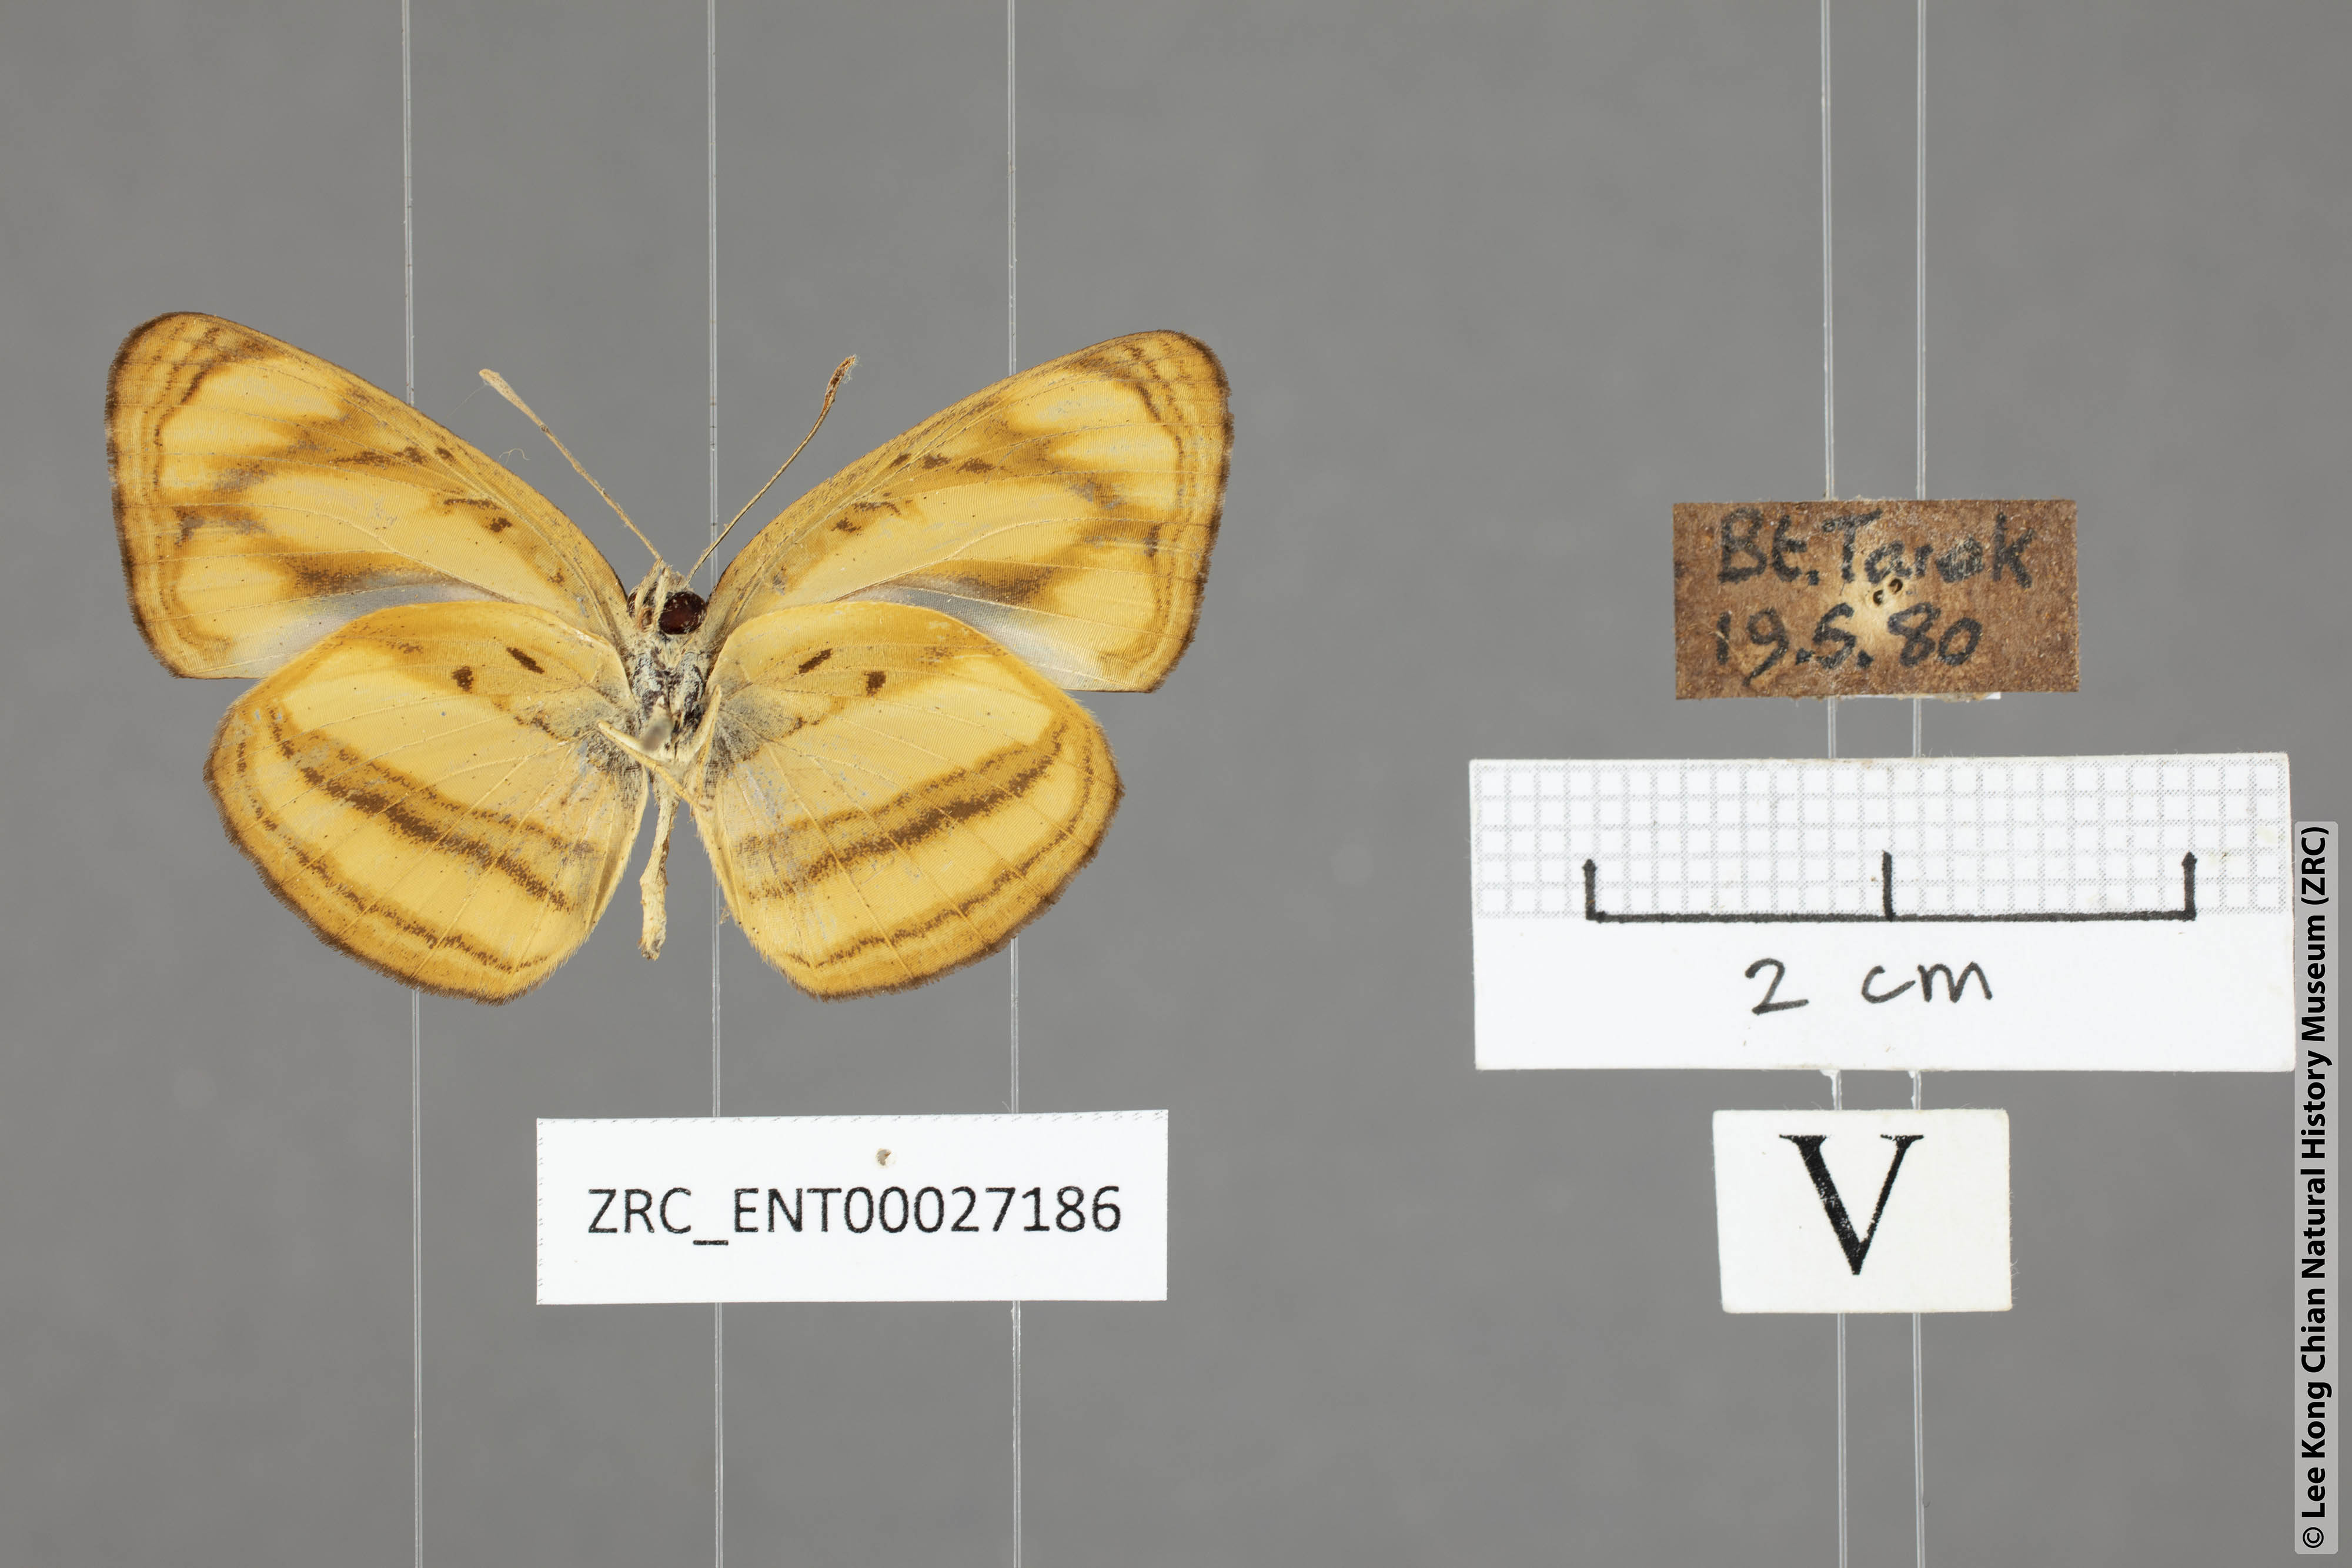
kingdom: Animalia
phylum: Arthropoda
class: Insecta
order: Lepidoptera
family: Nymphalidae
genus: Pantoporia
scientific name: Pantoporia paraka
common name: Perak lascar
